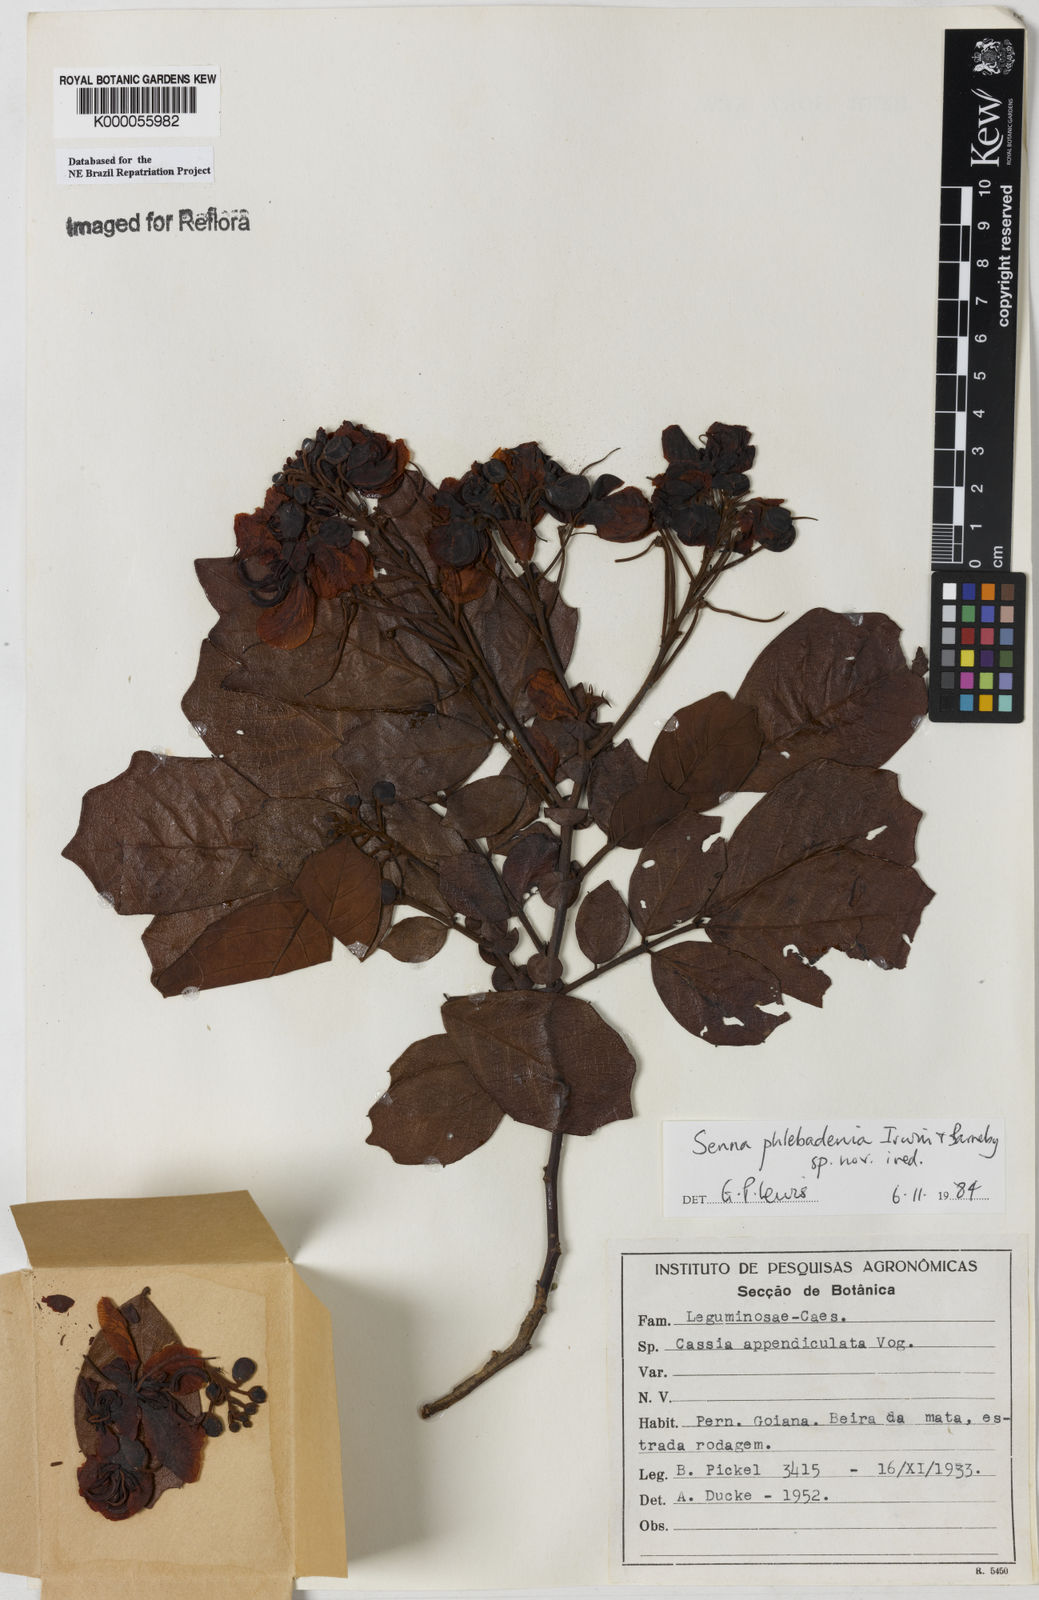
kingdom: Plantae
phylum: Tracheophyta
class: Magnoliopsida
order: Fabales
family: Fabaceae
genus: Senna
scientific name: Senna phlebadenia
